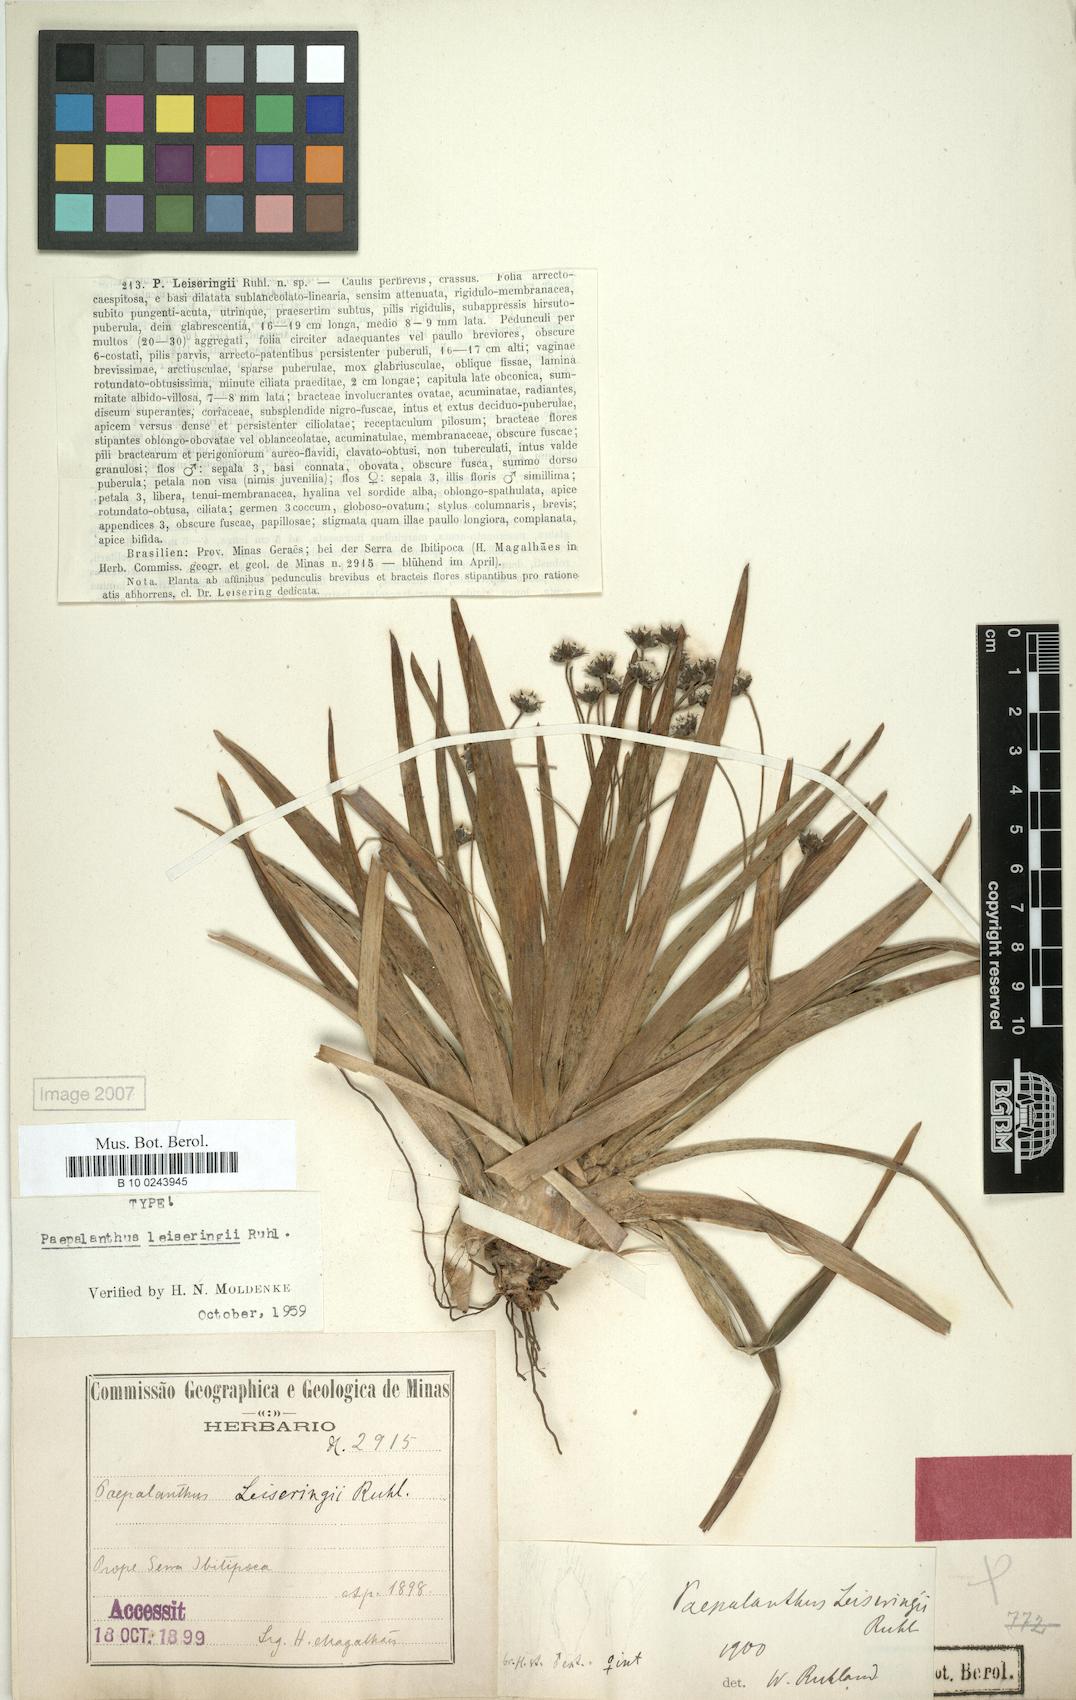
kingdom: Plantae
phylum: Tracheophyta
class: Liliopsida
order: Poales
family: Eriocaulaceae
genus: Paepalanthus
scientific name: Paepalanthus leiseringii
